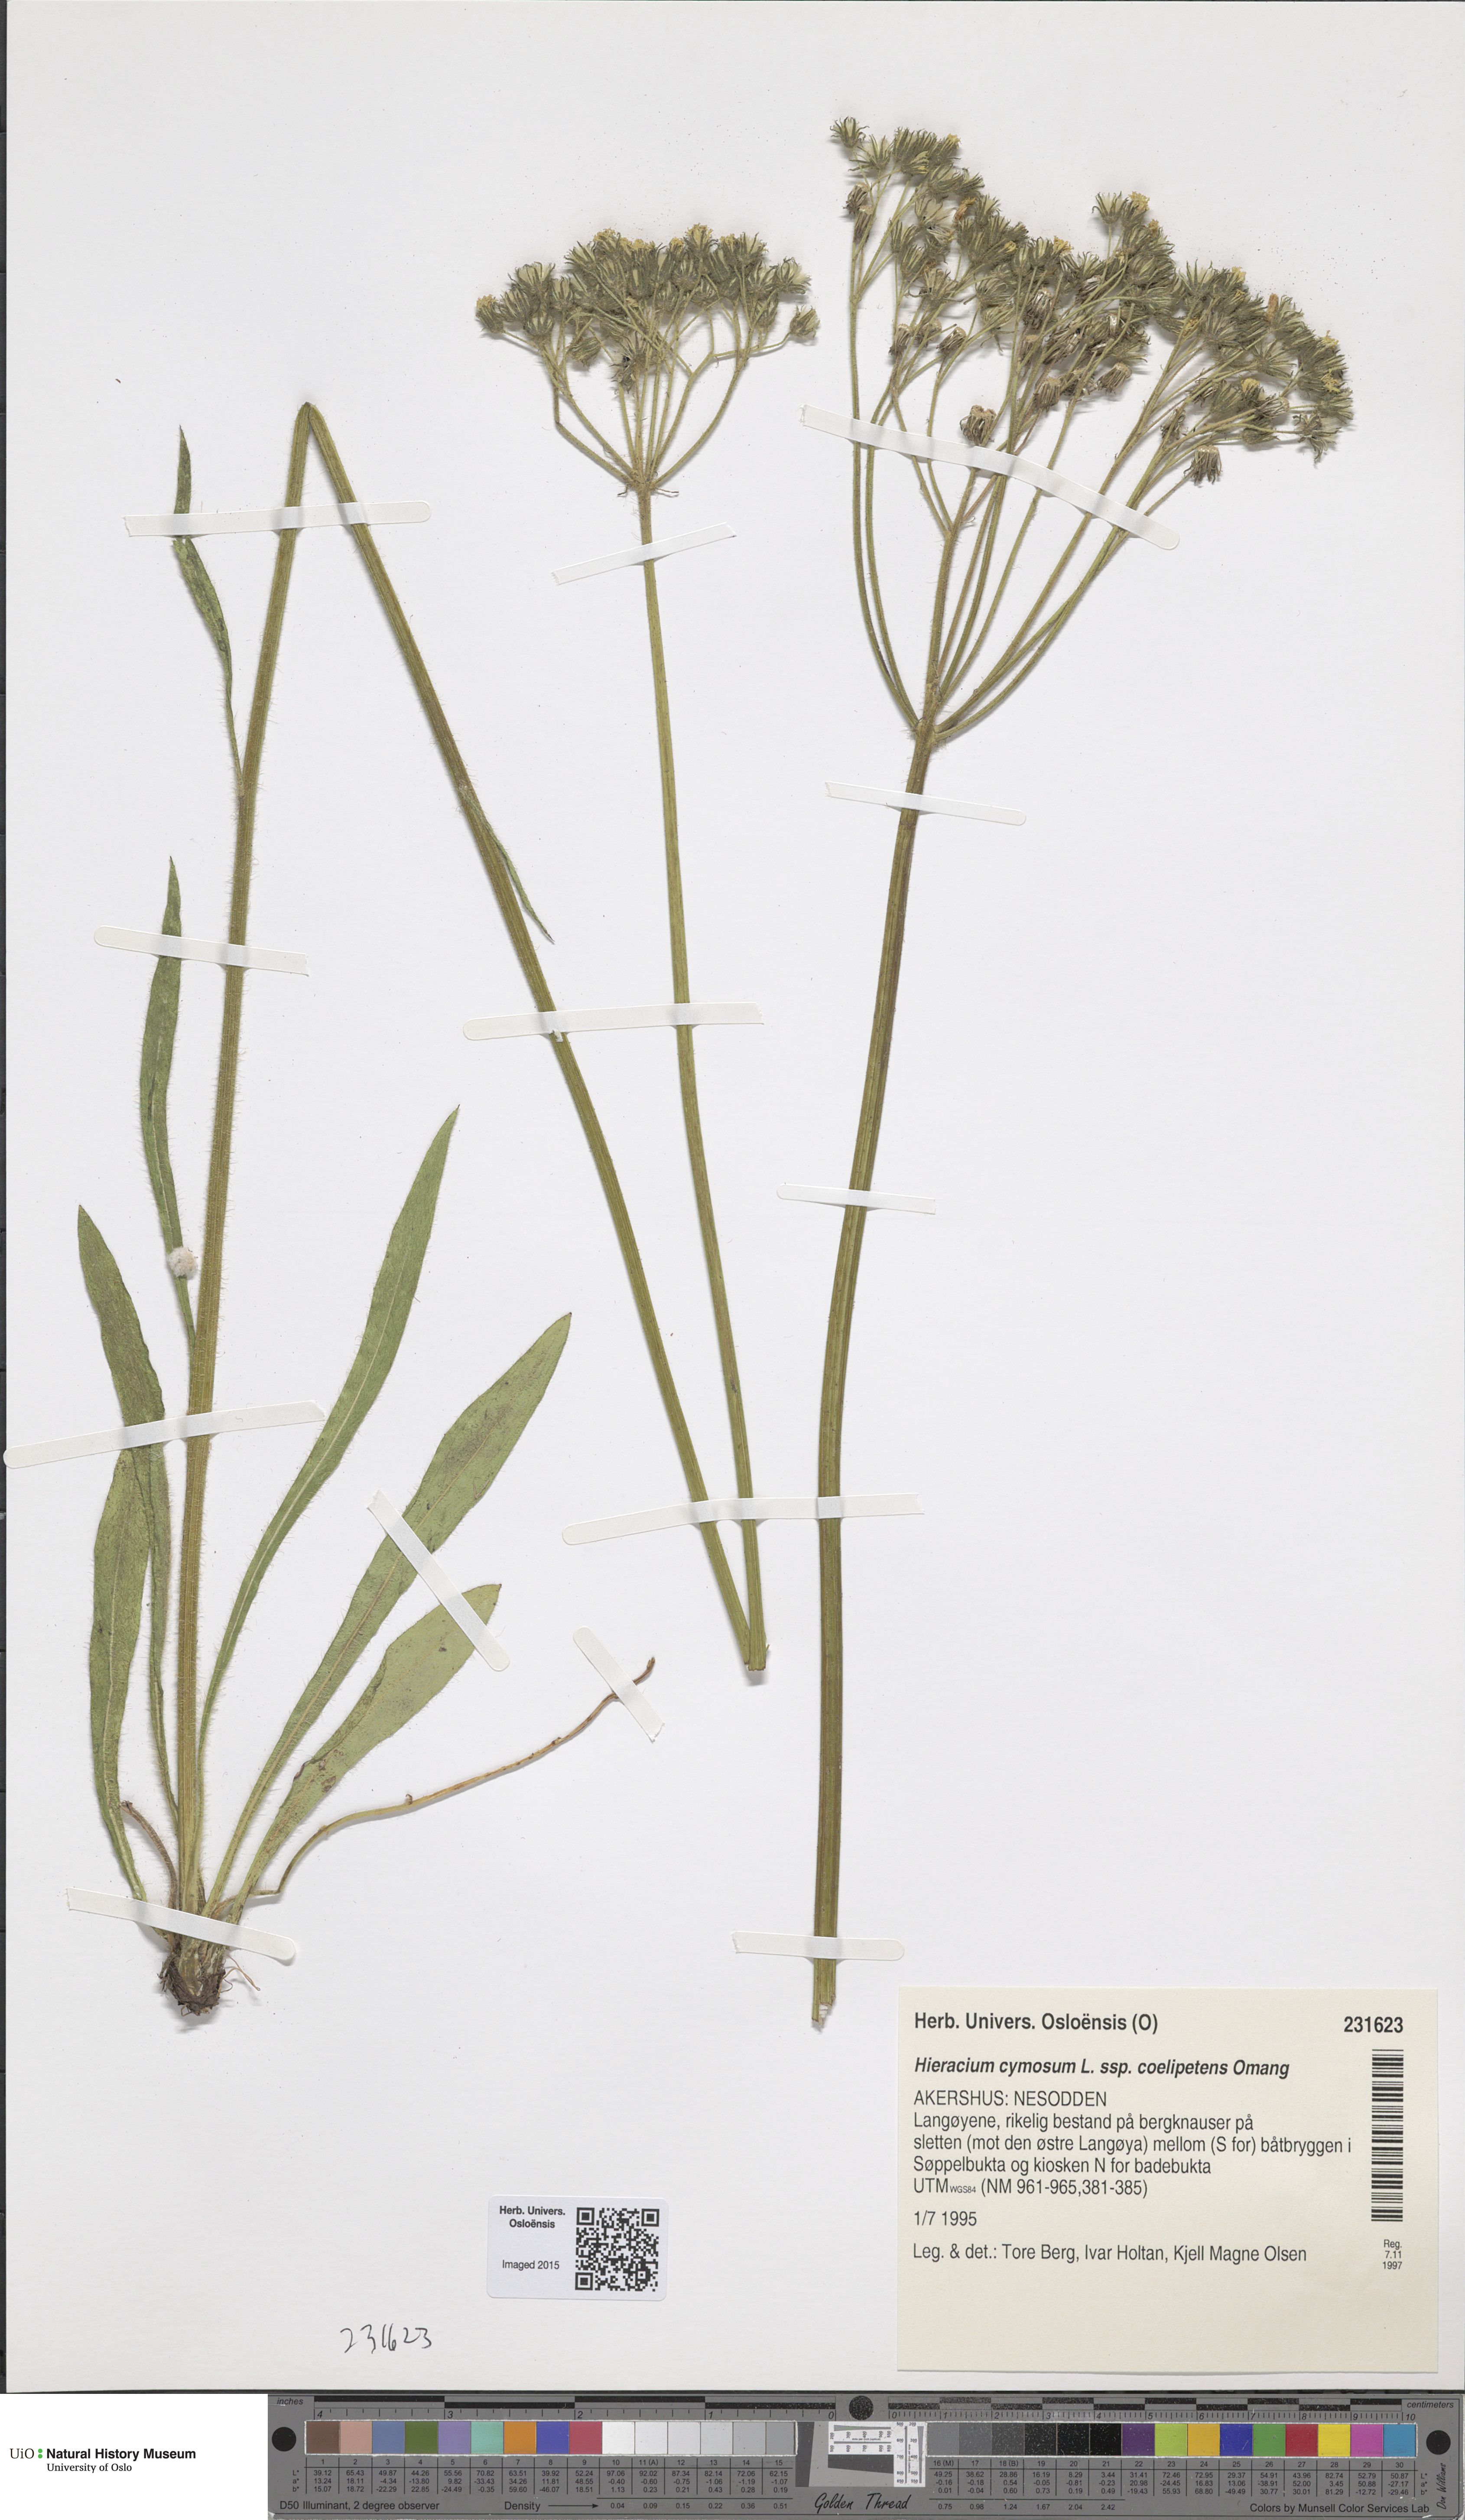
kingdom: Plantae
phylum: Tracheophyta
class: Magnoliopsida
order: Asterales
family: Asteraceae
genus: Pilosella
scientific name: Pilosella cymosa
